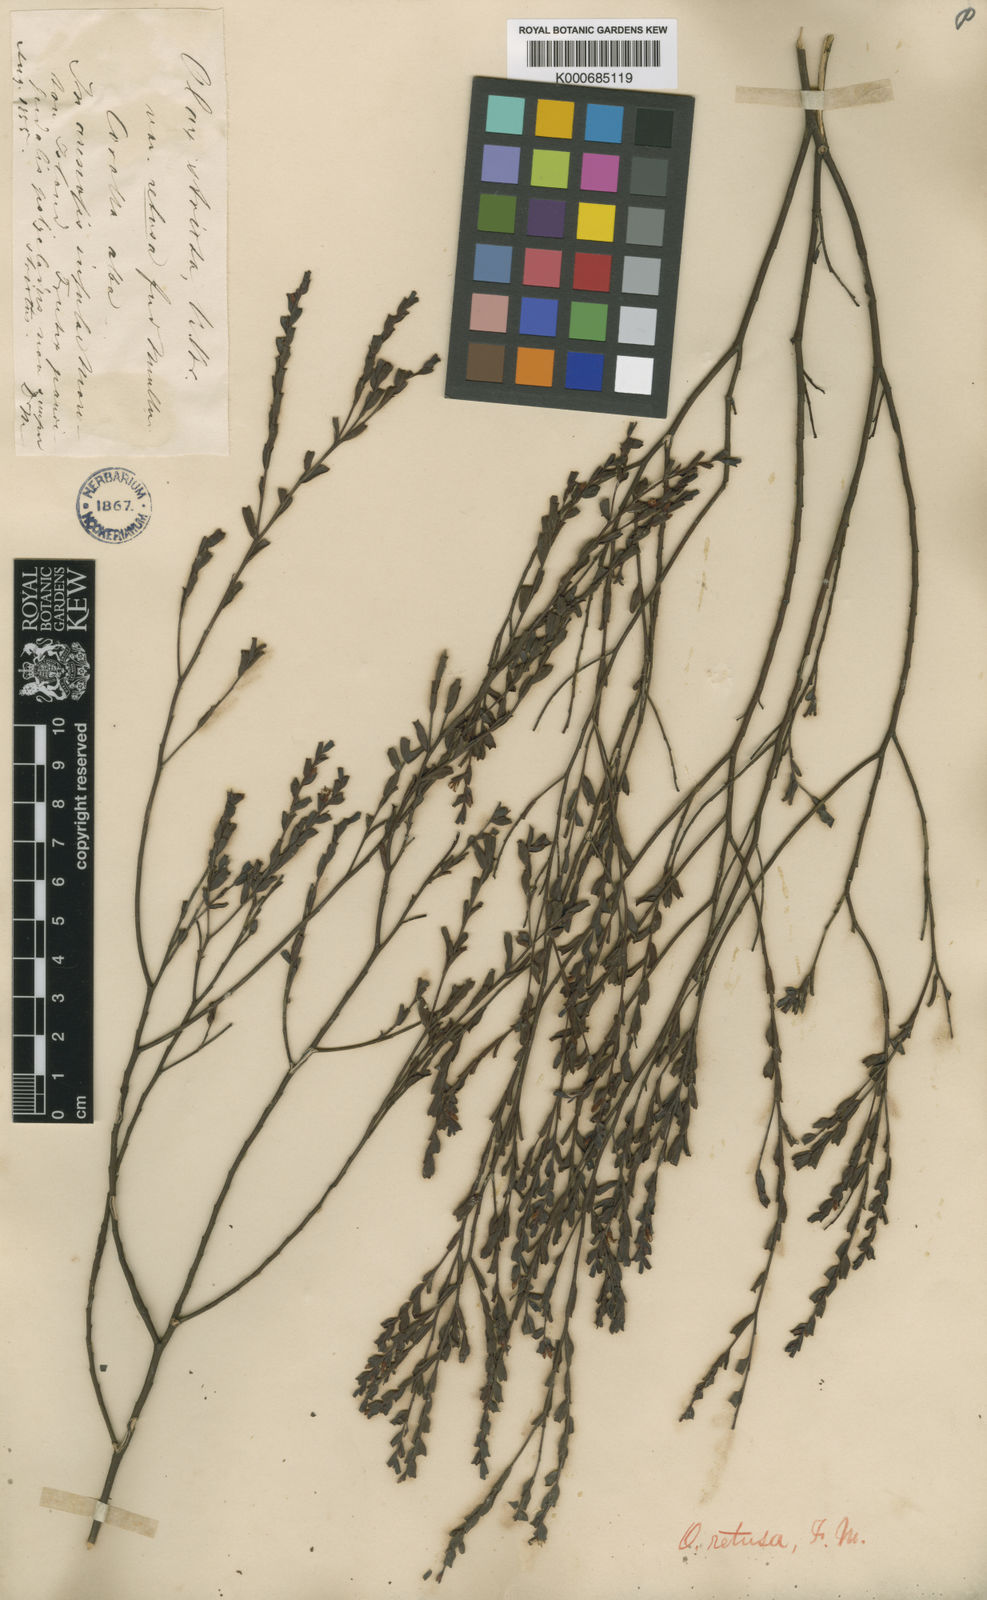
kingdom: Plantae
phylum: Tracheophyta
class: Magnoliopsida
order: Santalales
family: Olacaceae
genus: Olax
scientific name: Olax retusa
